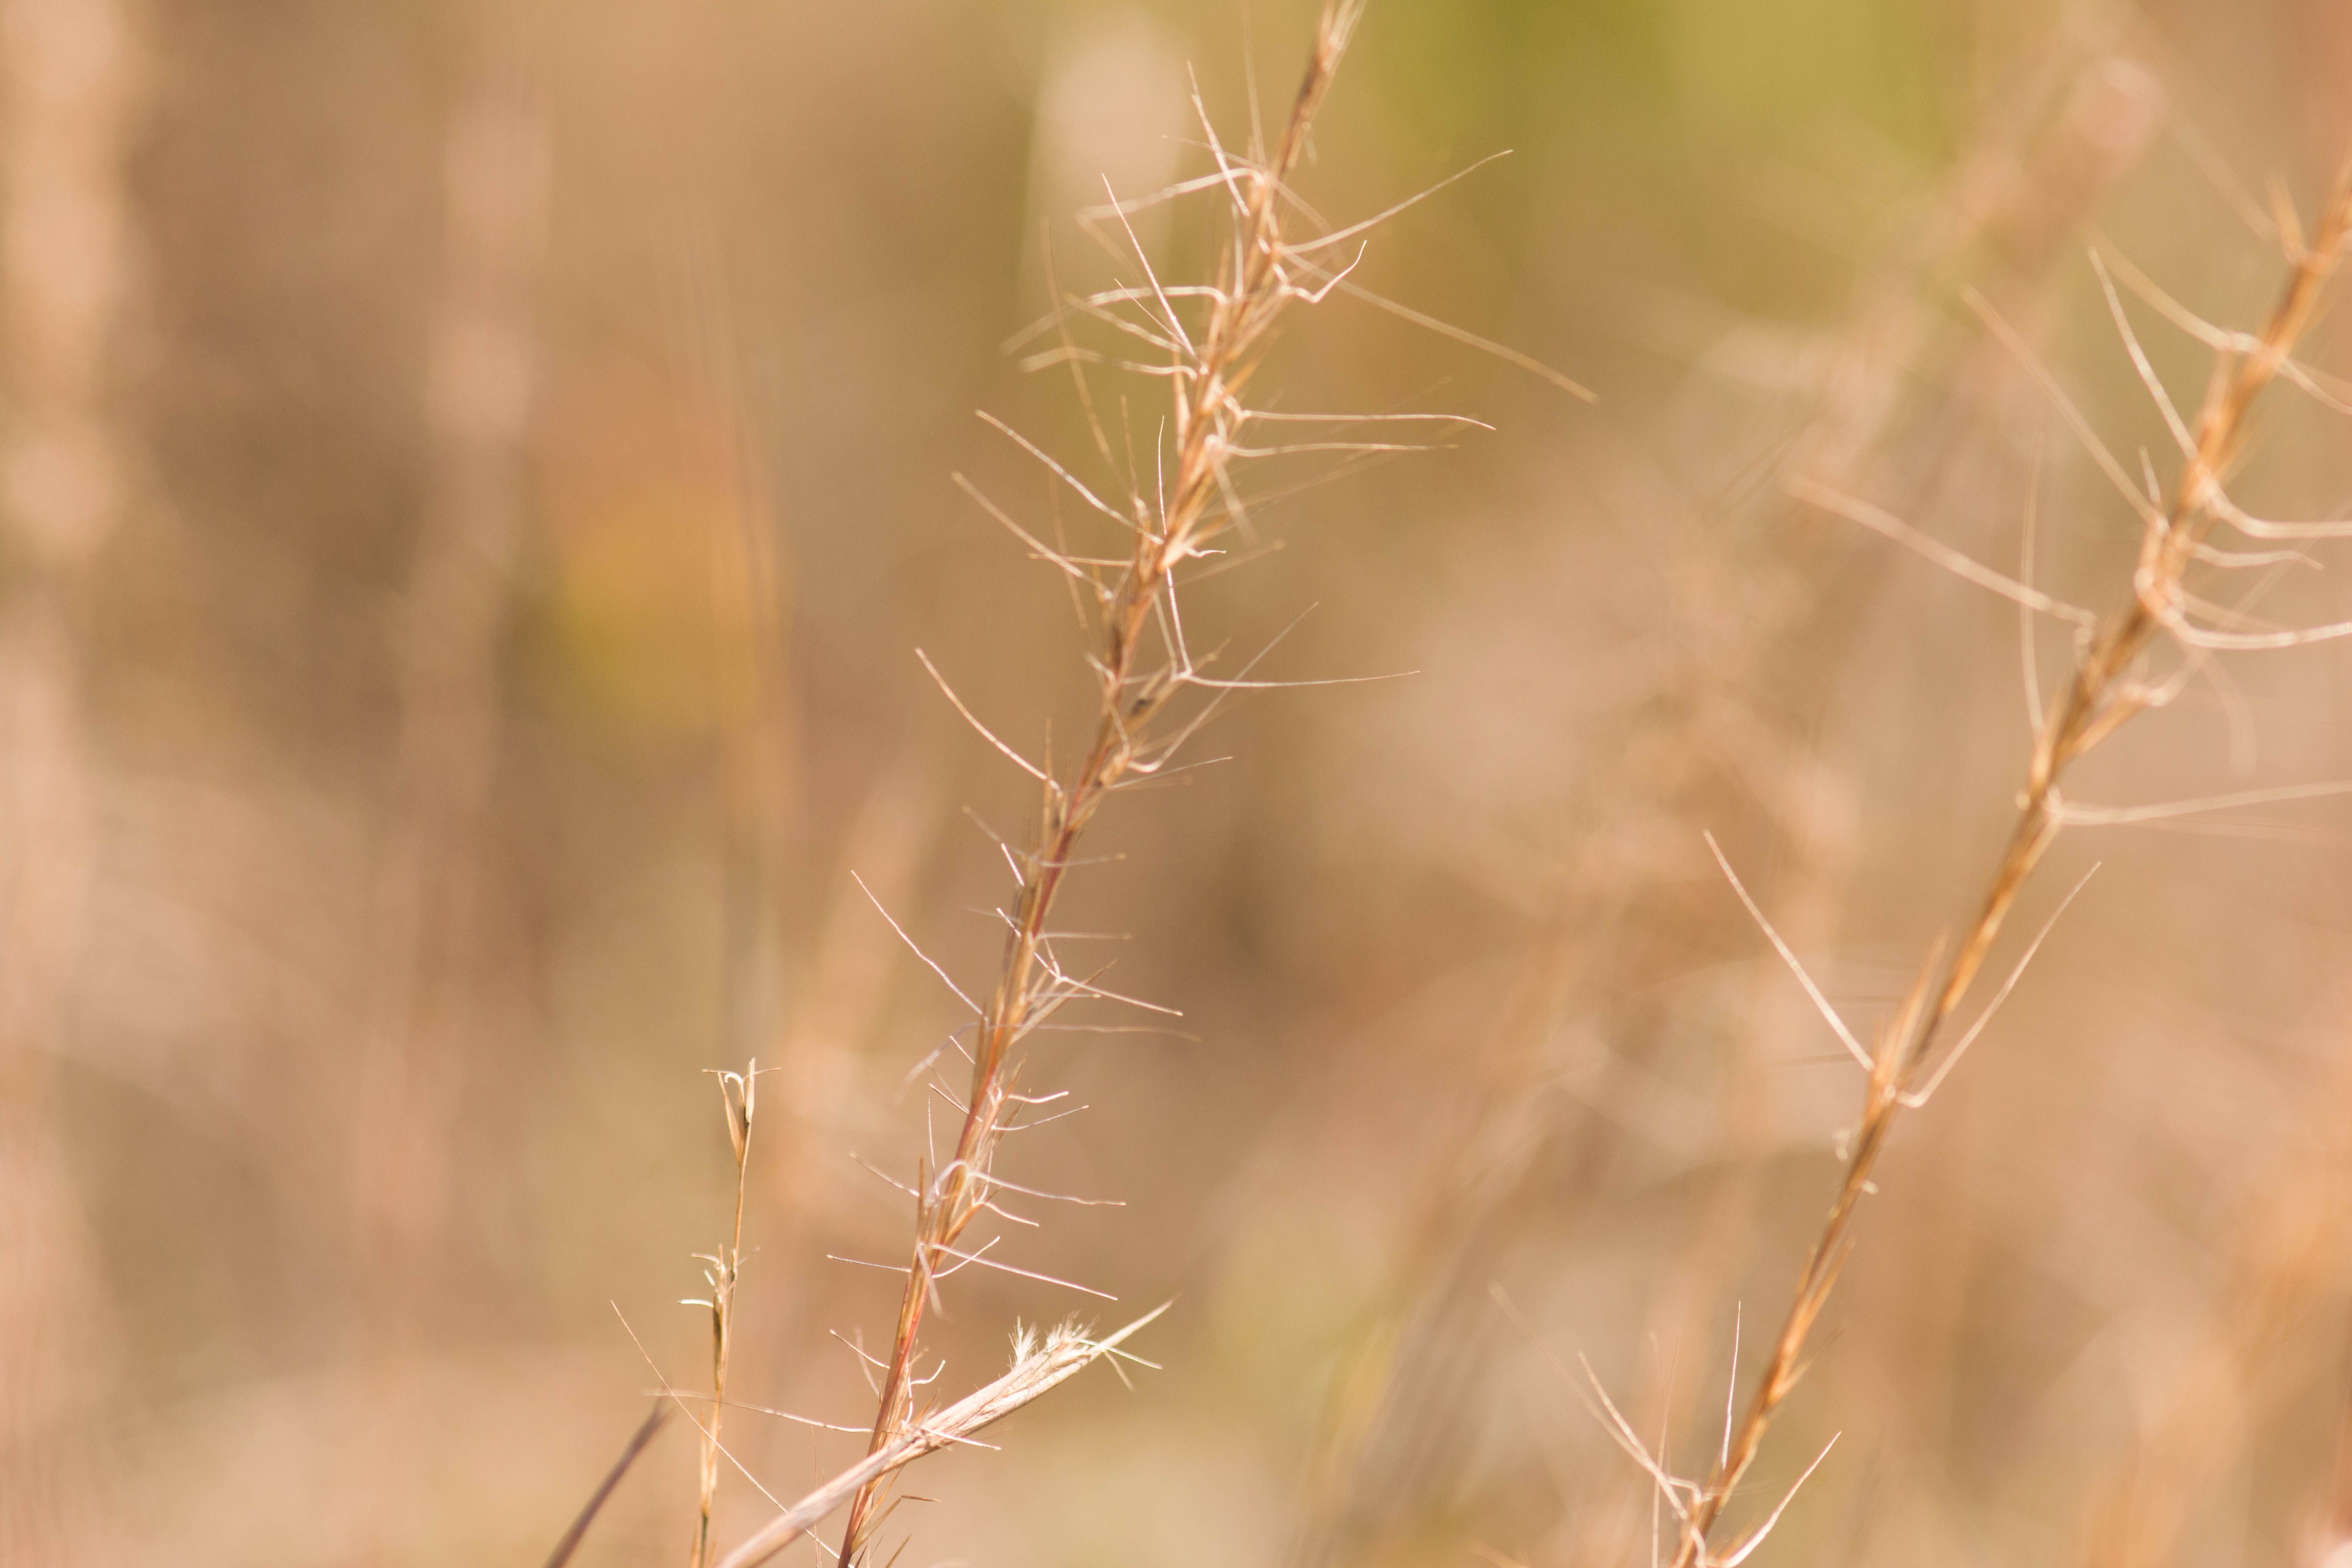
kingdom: Plantae
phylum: Tracheophyta
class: Liliopsida
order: Poales
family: Poaceae
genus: Aristida
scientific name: Aristida purpurascens
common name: Arrow-feather
